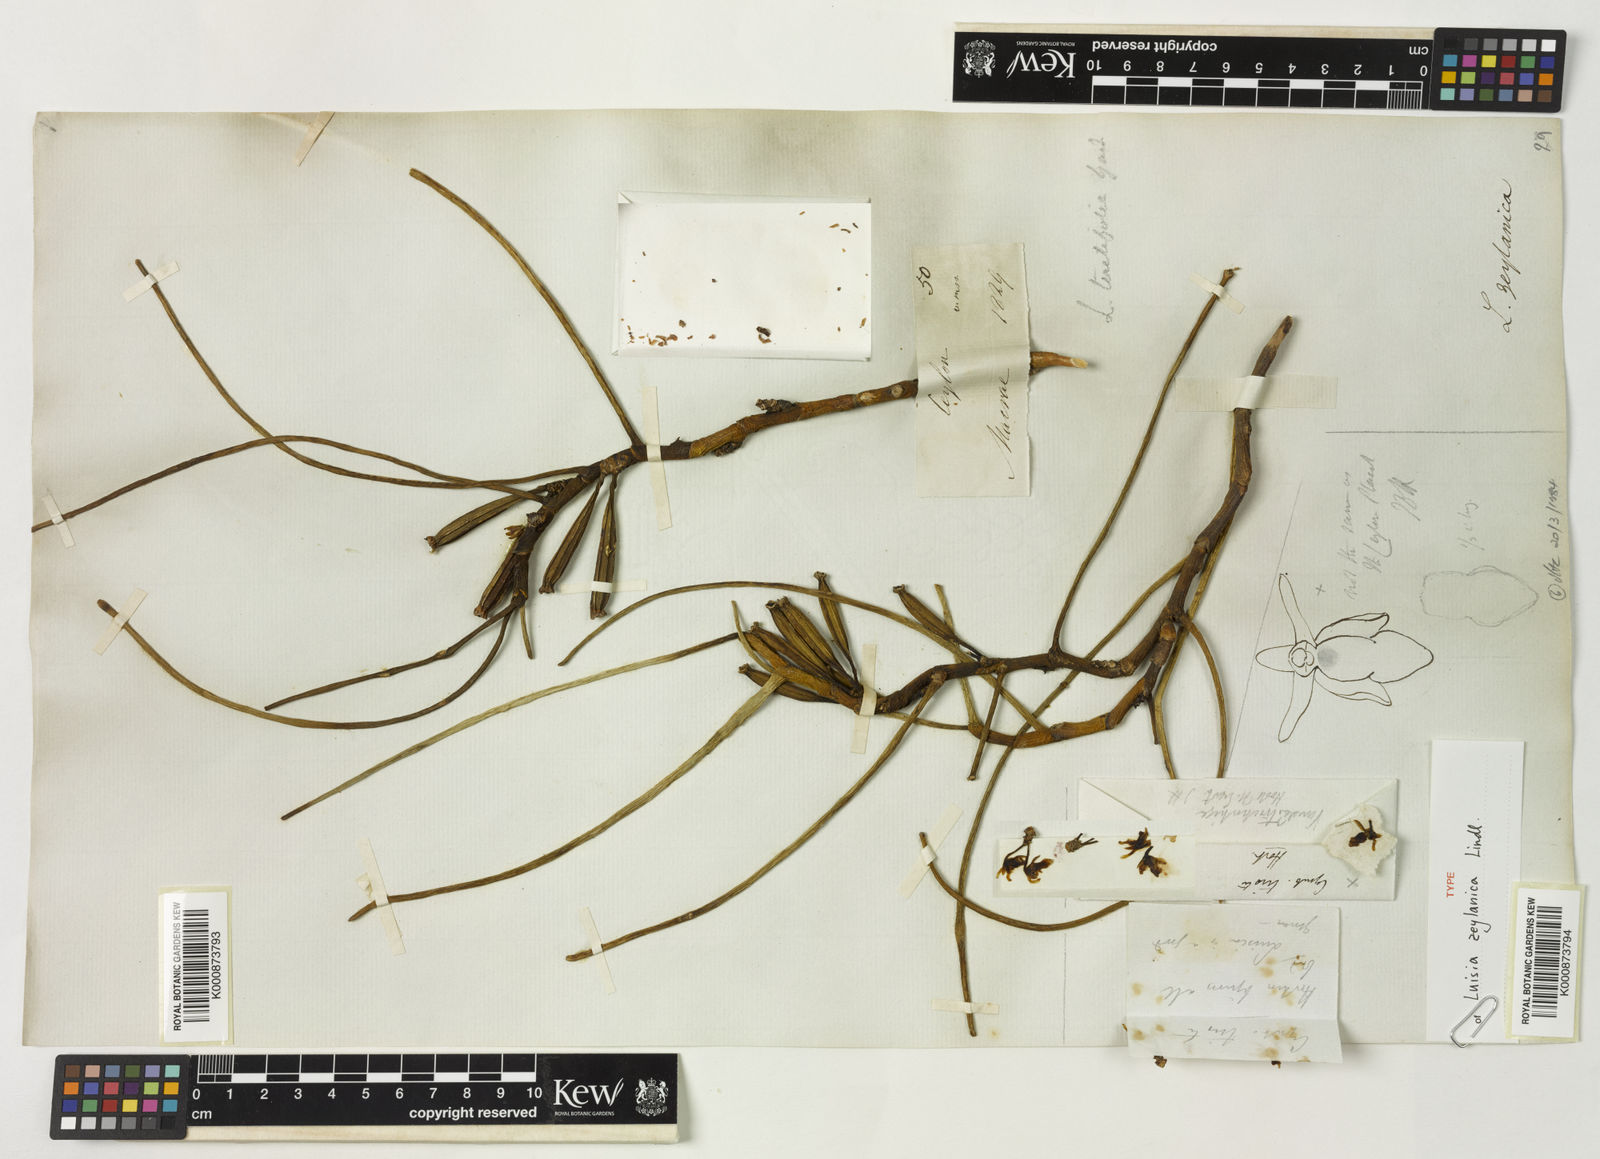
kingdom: Plantae
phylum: Tracheophyta
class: Liliopsida
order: Asparagales
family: Orchidaceae
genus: Luisia
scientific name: Luisia zeylanica
